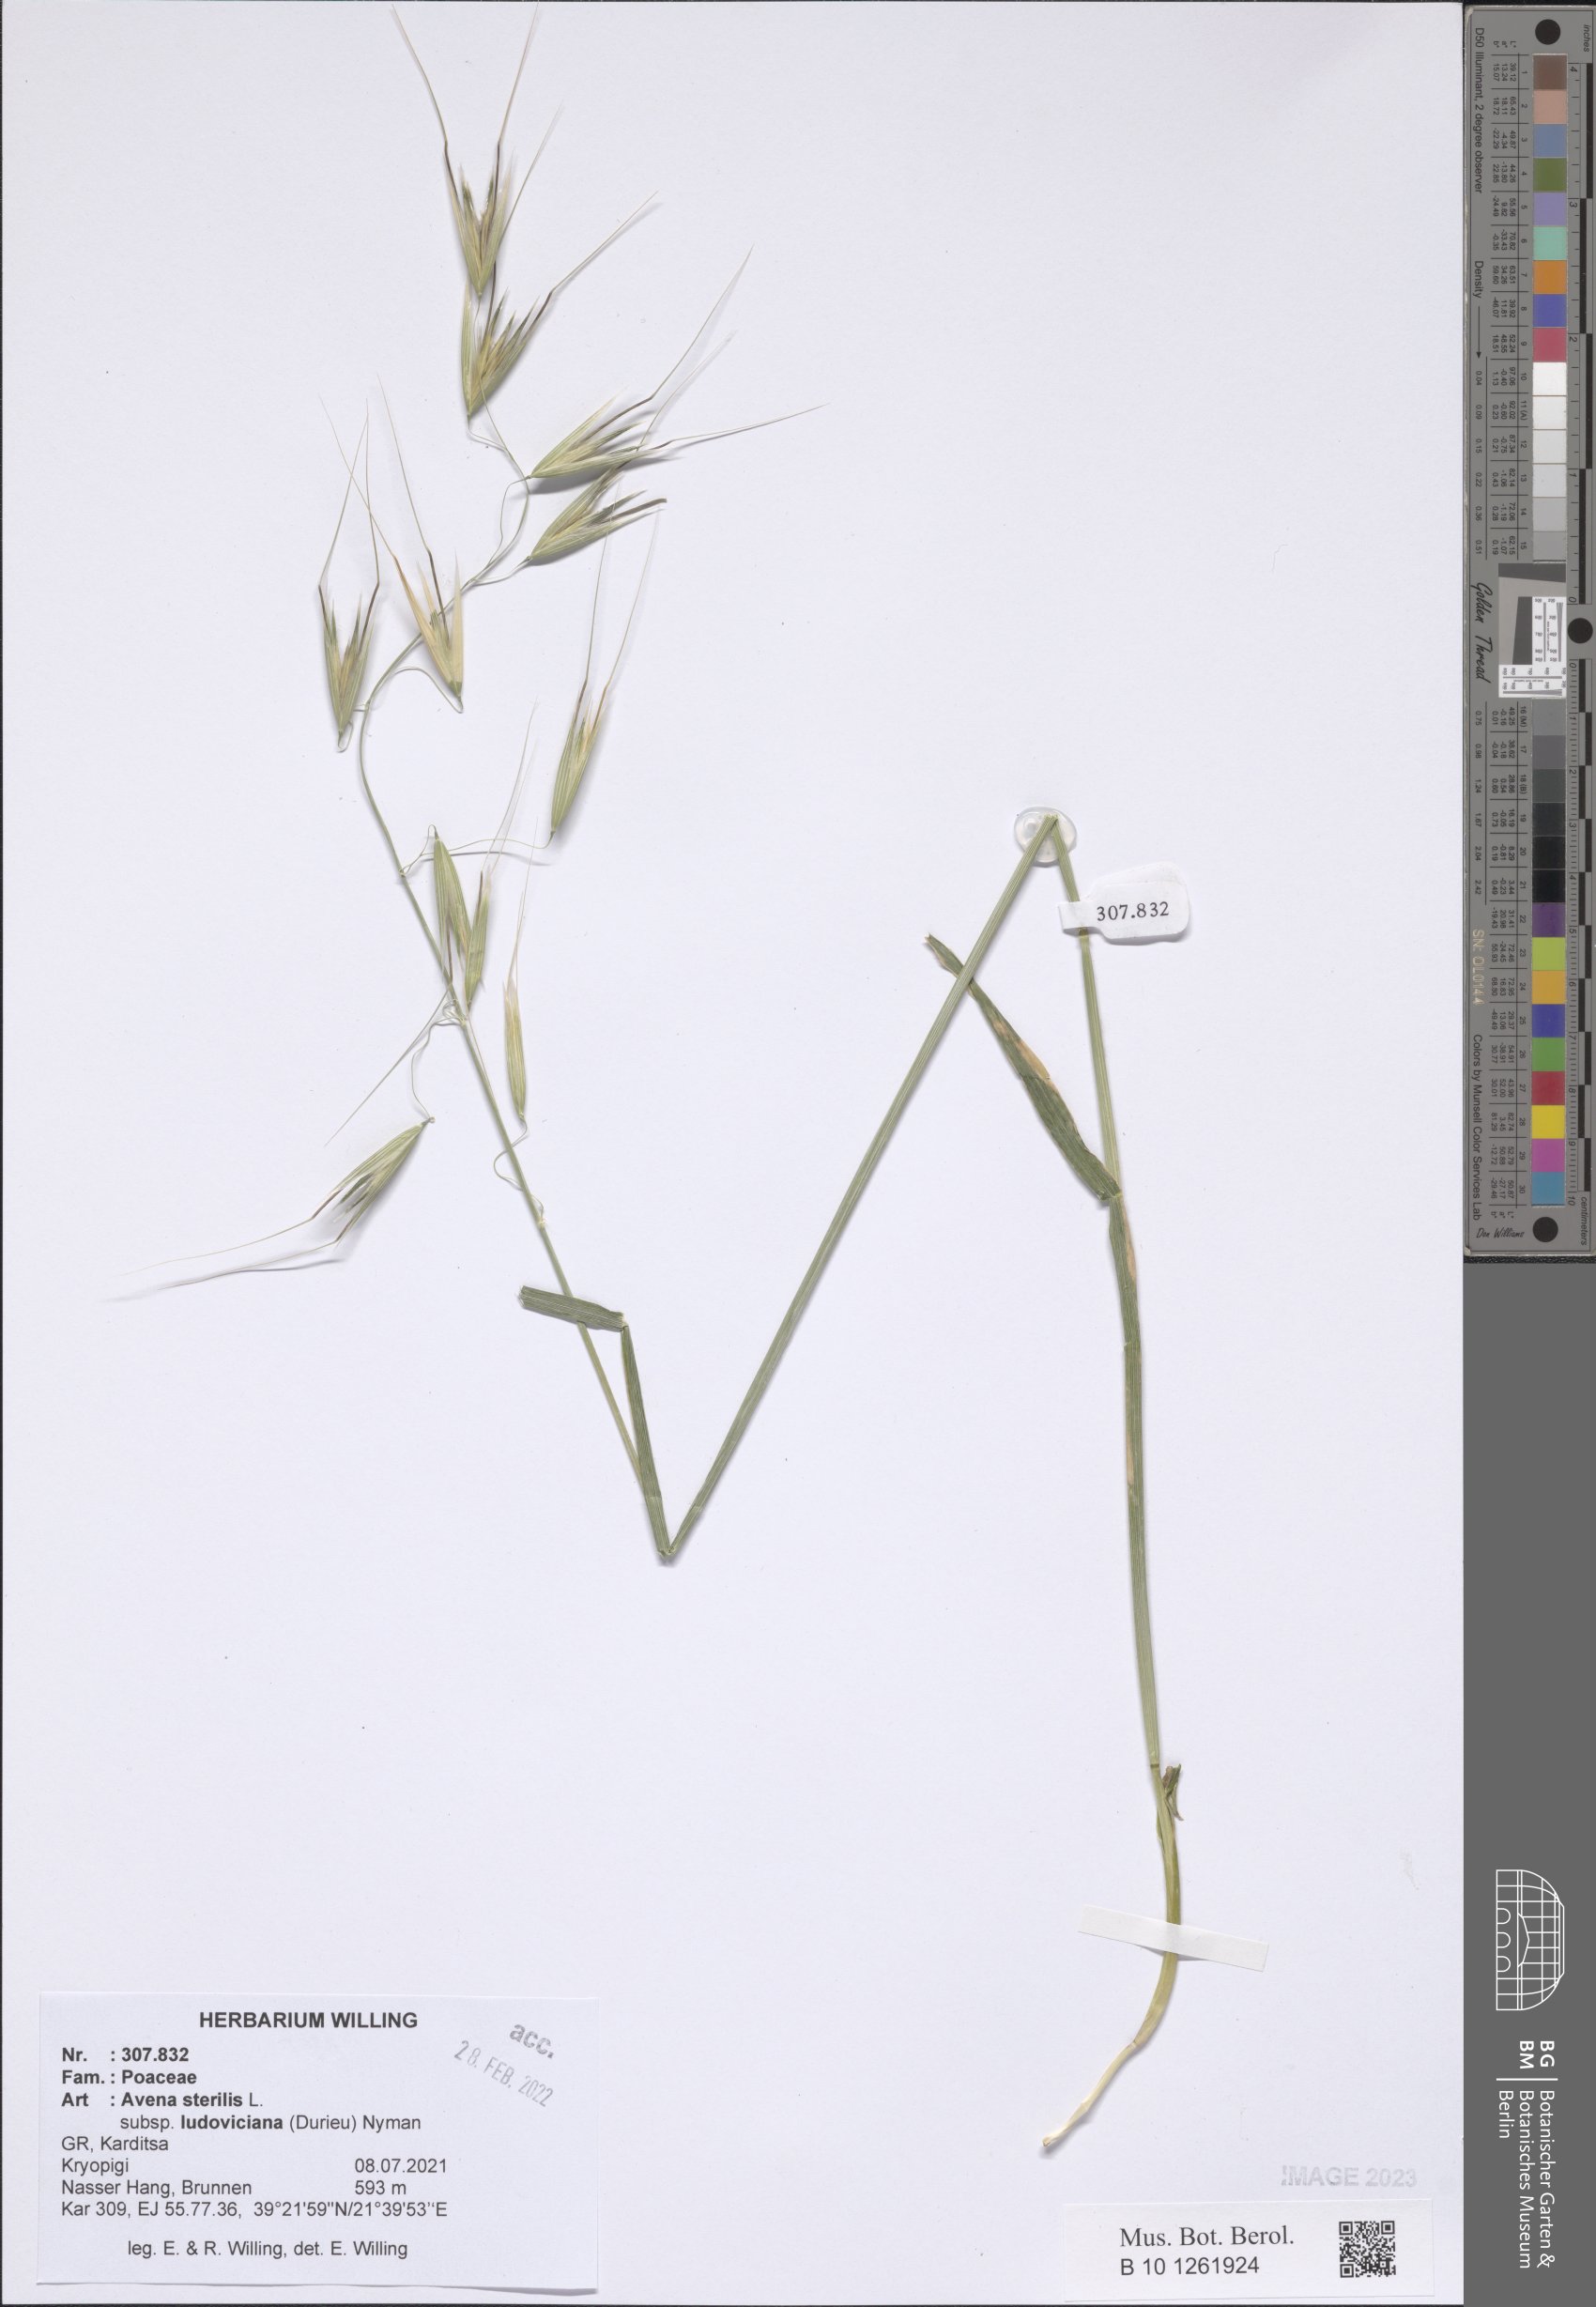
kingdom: Plantae
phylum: Tracheophyta
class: Liliopsida
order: Poales
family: Poaceae
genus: Avena
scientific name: Avena sterilis
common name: Animated oat
